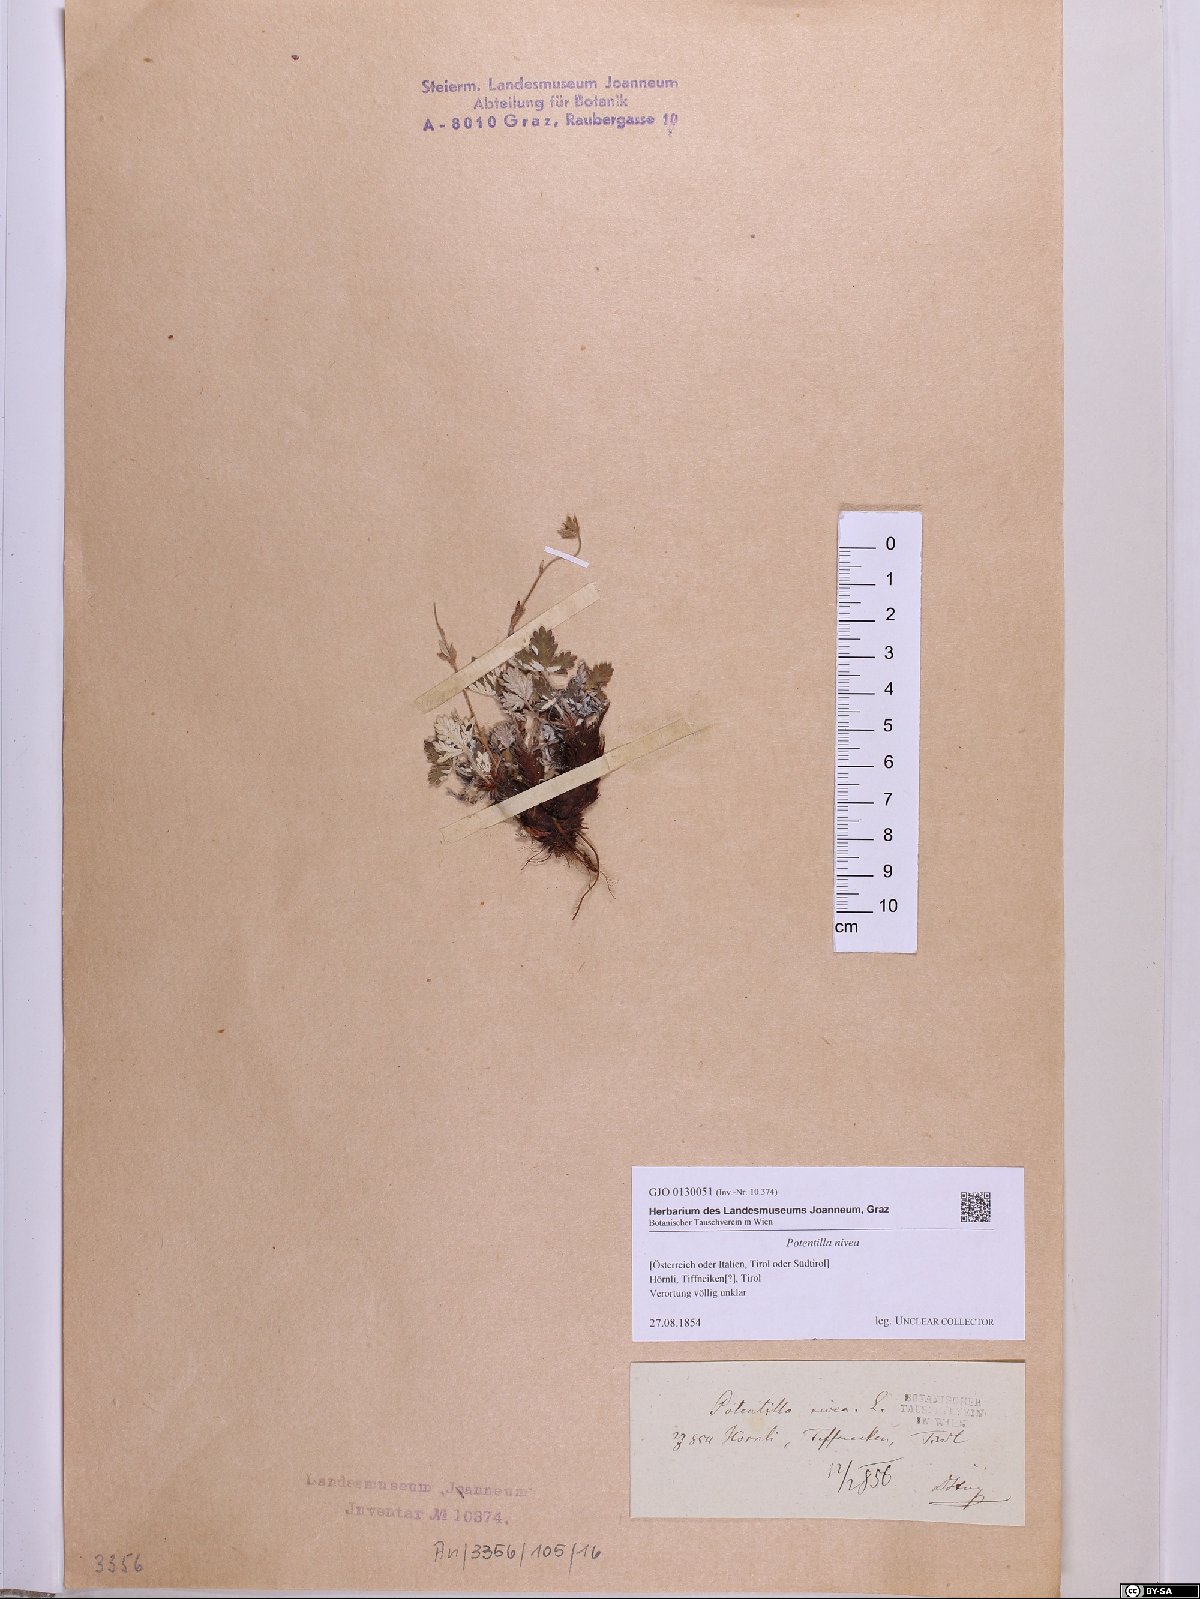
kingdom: Plantae
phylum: Tracheophyta
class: Magnoliopsida
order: Rosales
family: Rosaceae
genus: Potentilla
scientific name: Potentilla nivea
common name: Snow cinquefoil
